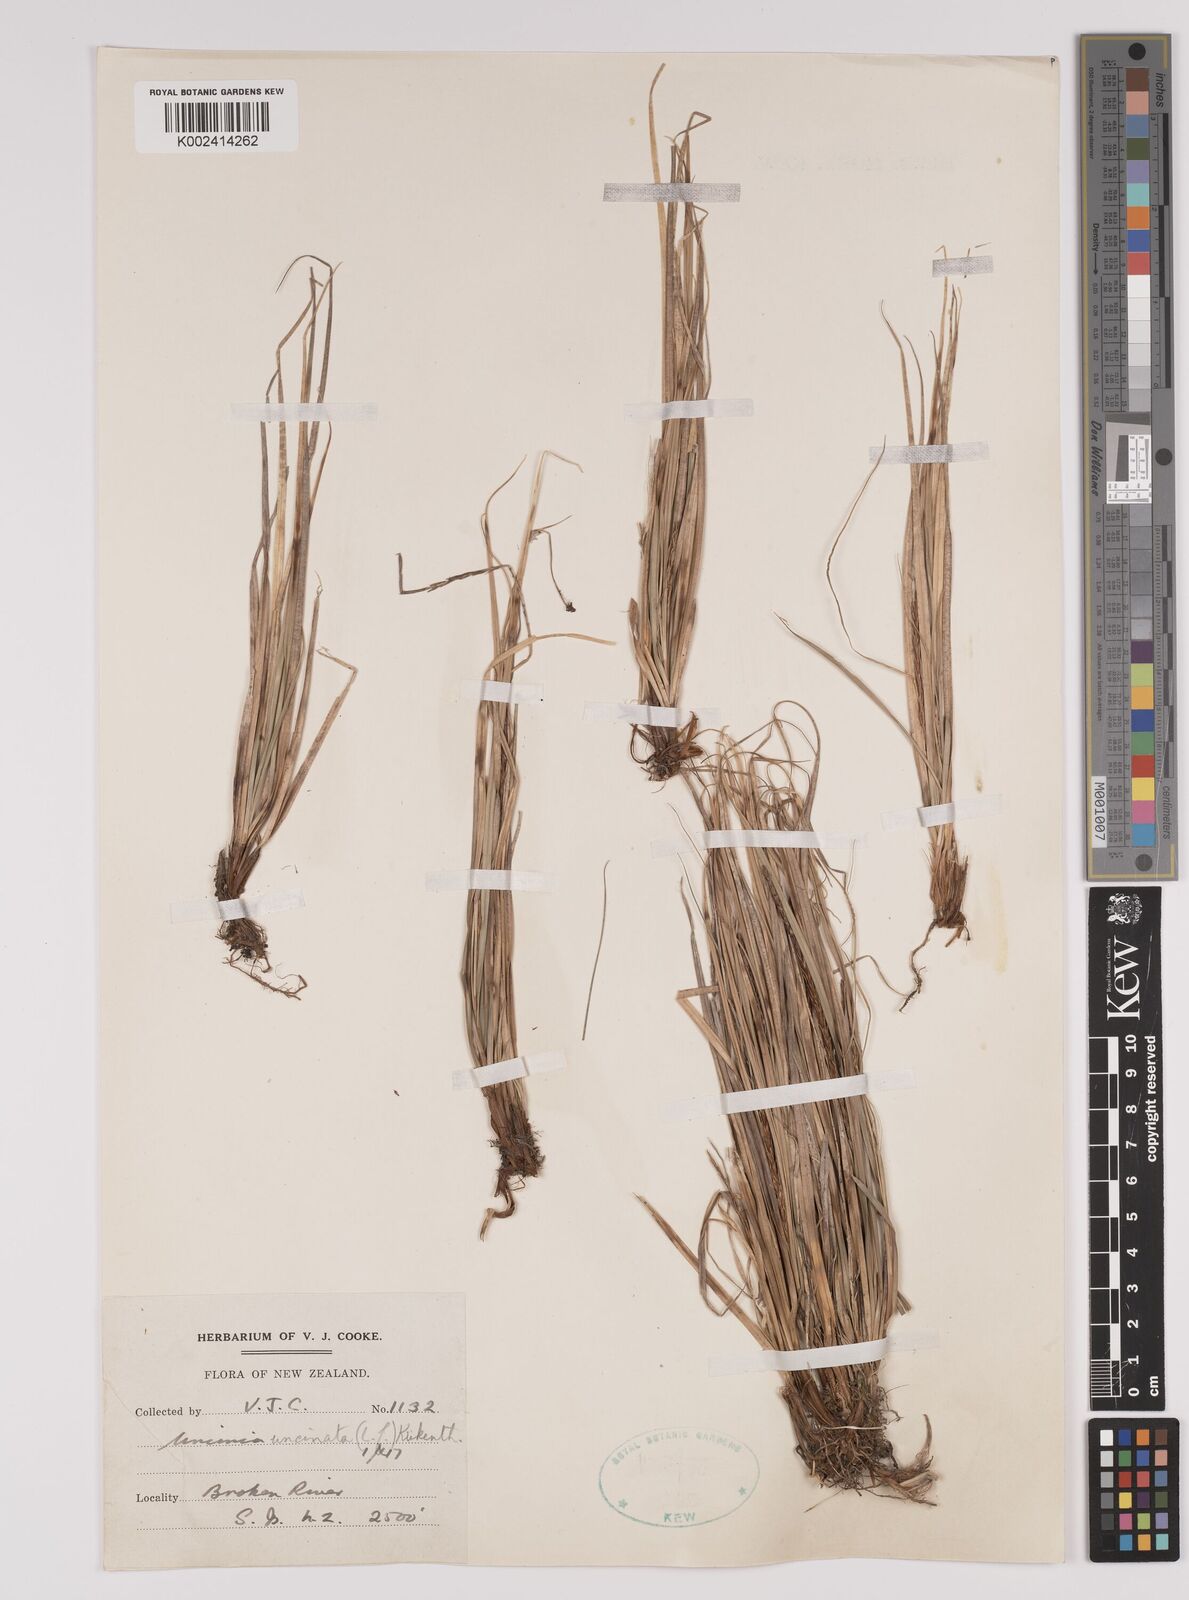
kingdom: Plantae
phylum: Tracheophyta
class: Liliopsida
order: Poales
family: Cyperaceae
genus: Carex
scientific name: Carex uncinata
